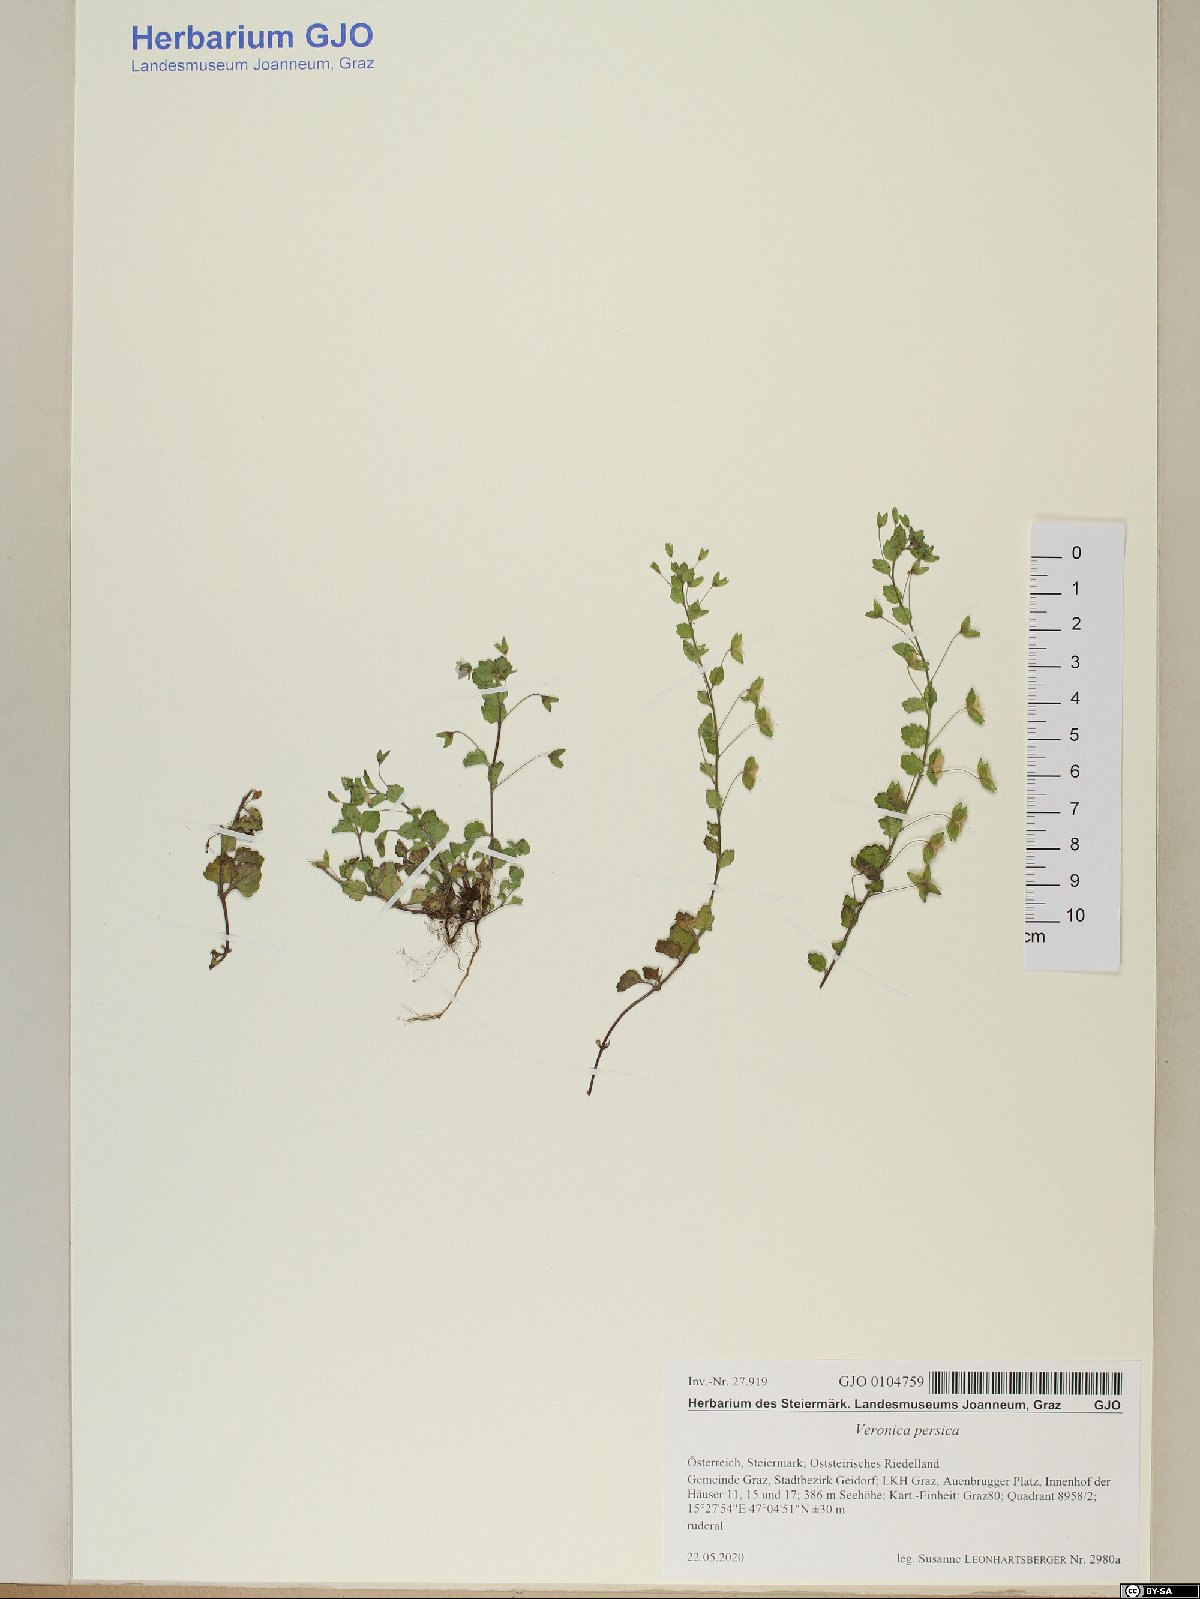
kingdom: Plantae
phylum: Tracheophyta
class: Magnoliopsida
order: Lamiales
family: Plantaginaceae
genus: Veronica
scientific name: Veronica persica
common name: Common field-speedwell
